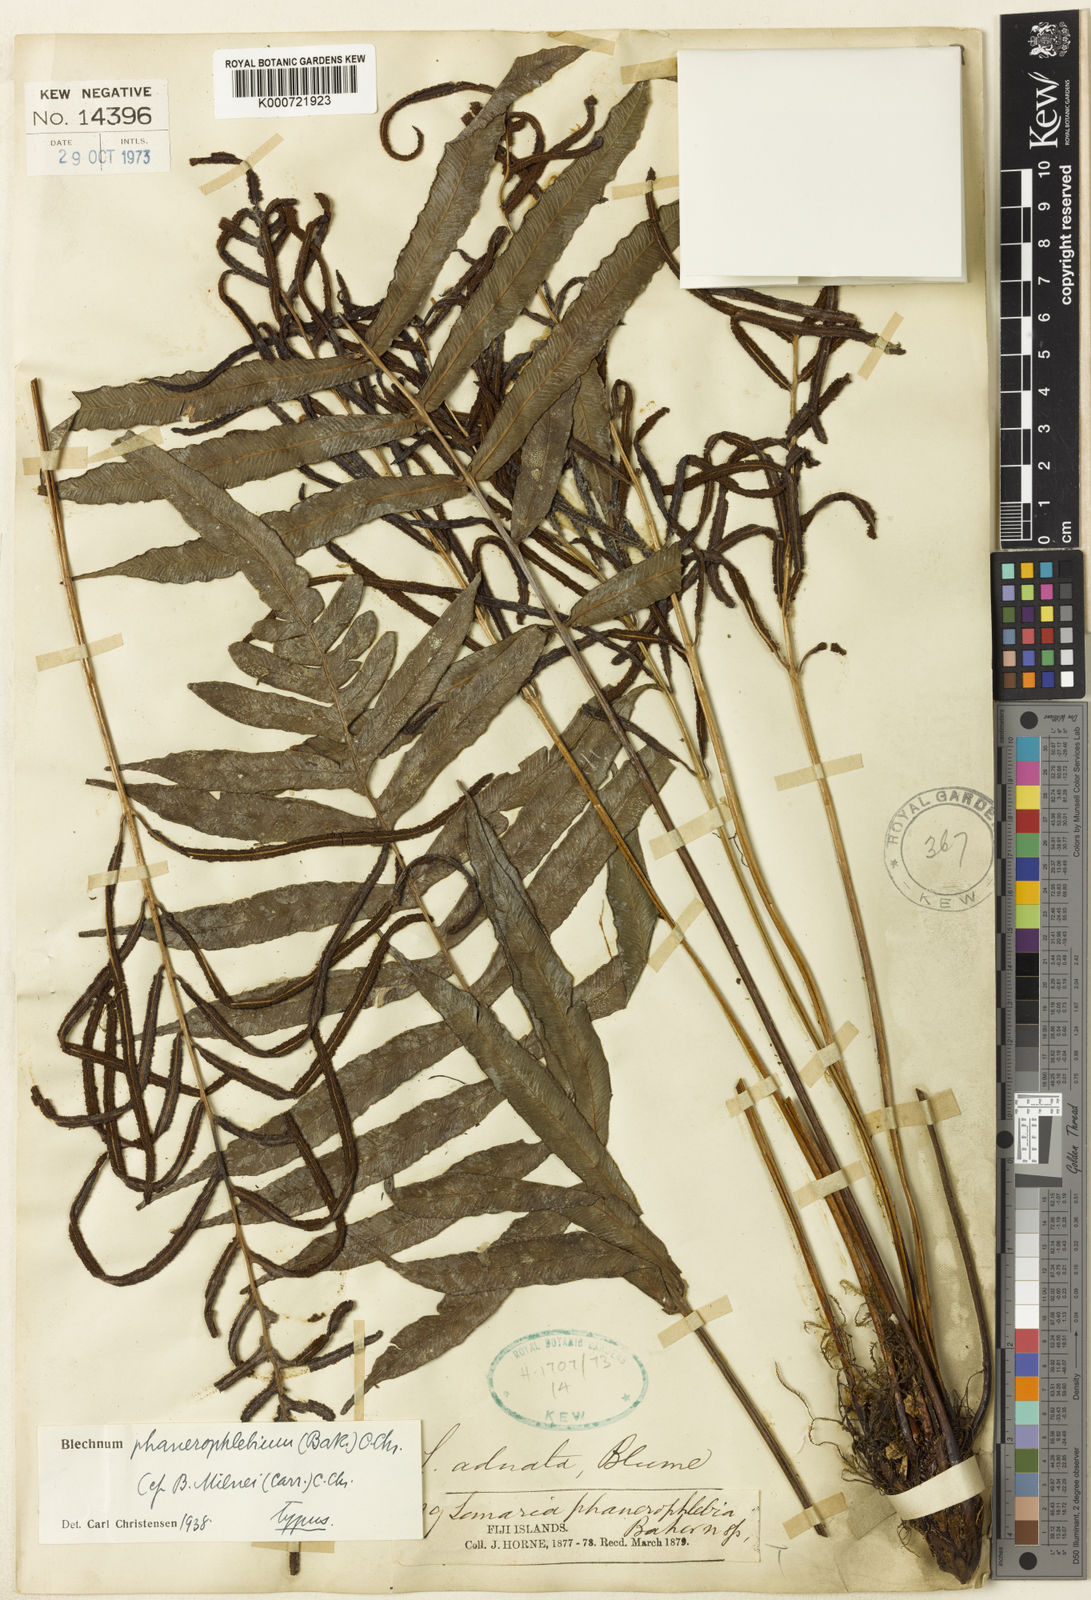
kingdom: Plantae
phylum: Tracheophyta
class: Polypodiopsida
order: Polypodiales
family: Blechnaceae
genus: Cranfillia
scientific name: Cranfillia phanerophlebia
